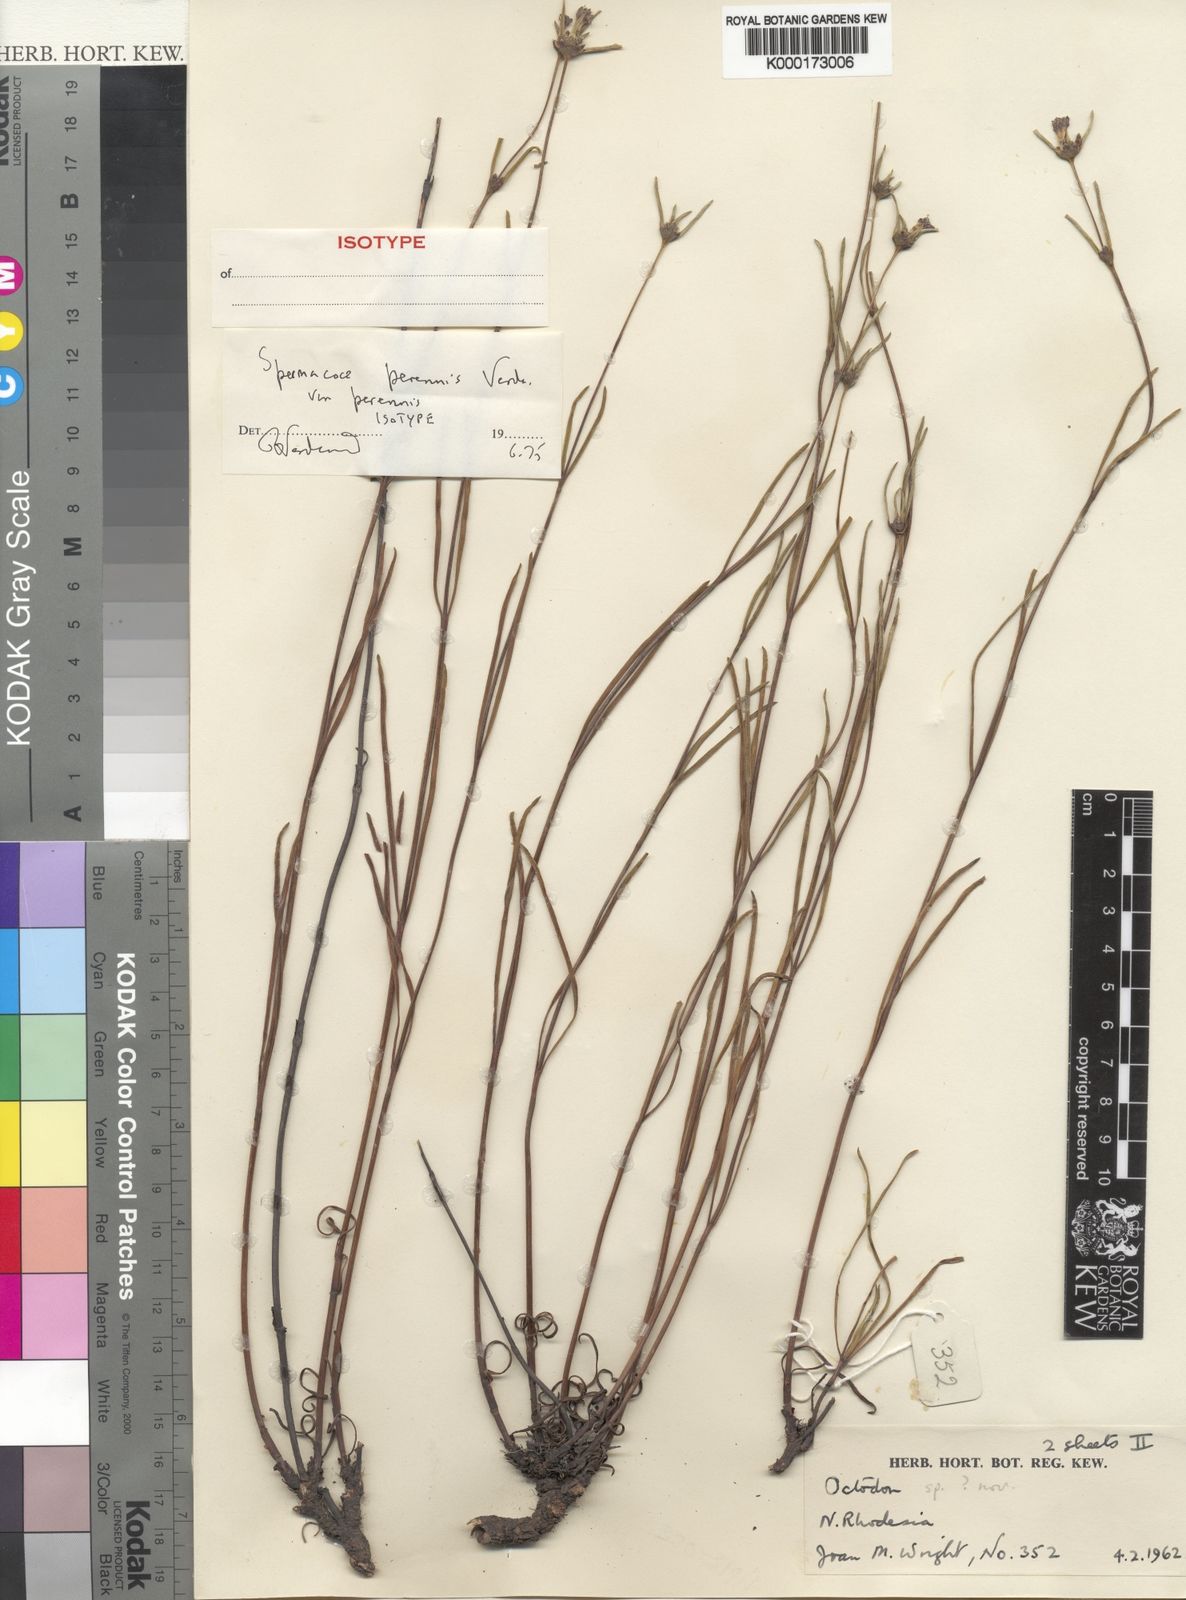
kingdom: Plantae
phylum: Tracheophyta
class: Magnoliopsida
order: Gentianales
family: Rubiaceae
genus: Spermacoce
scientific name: Spermacoce perennis
